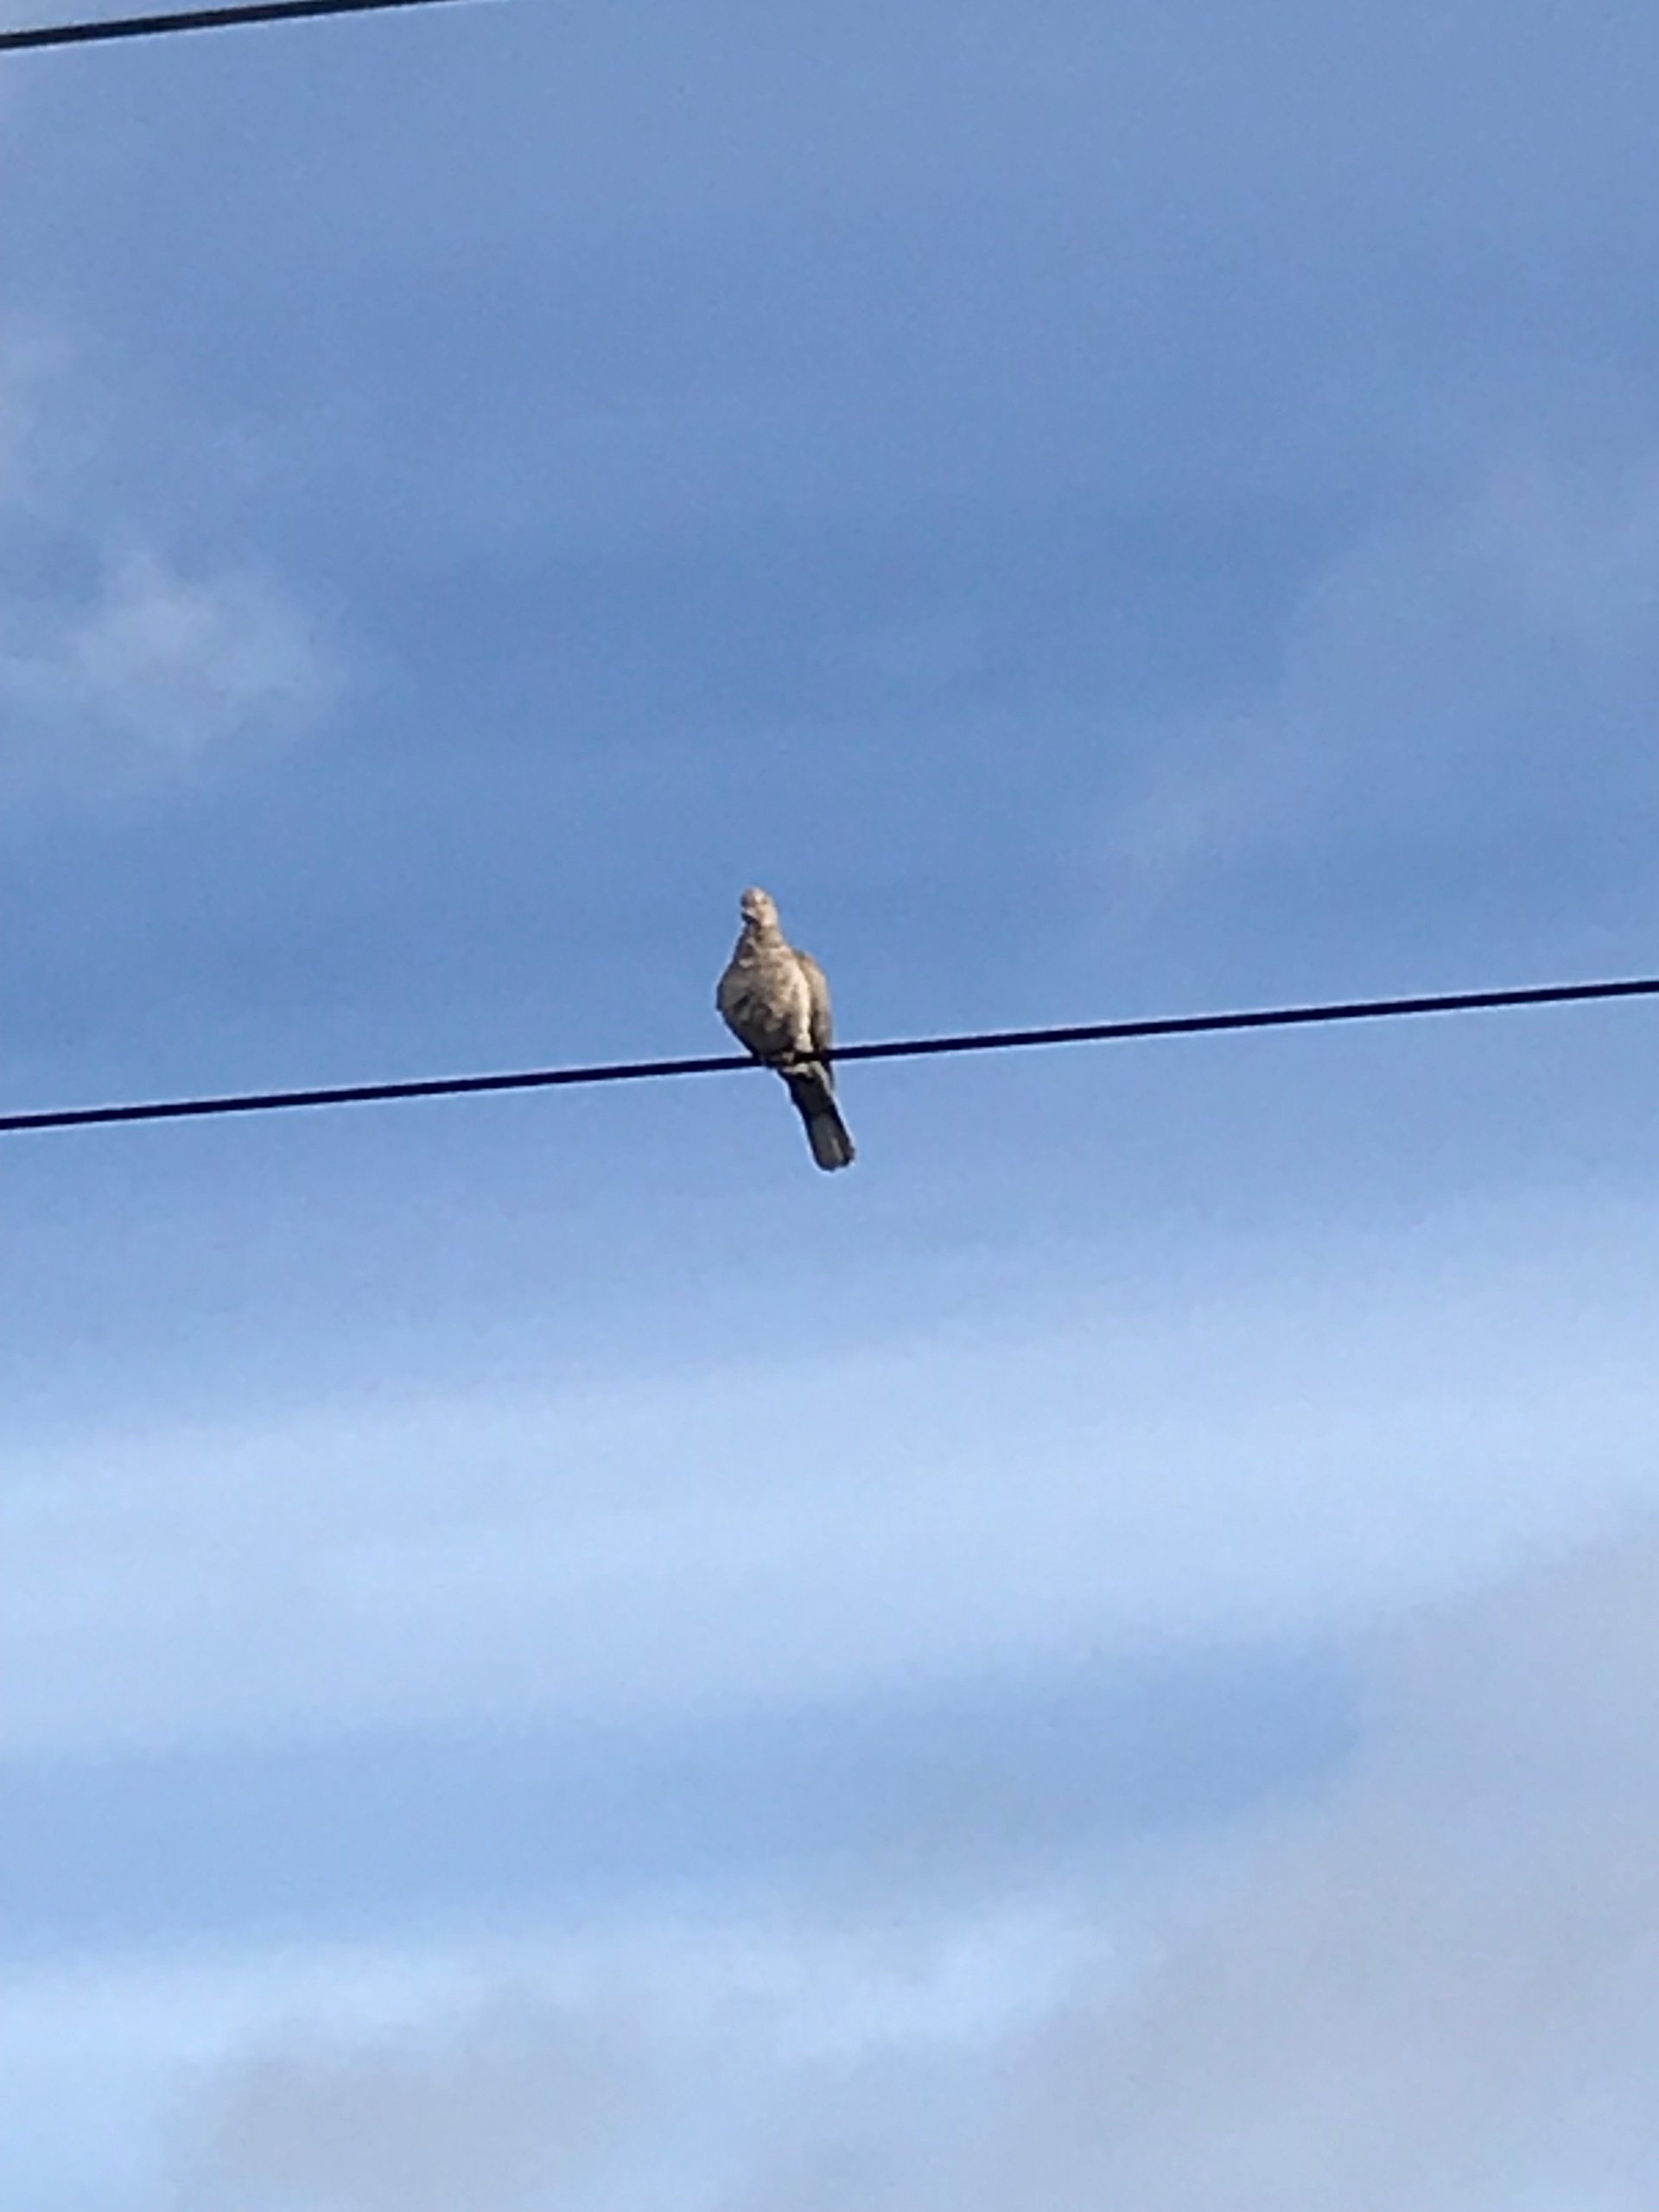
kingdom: Animalia
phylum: Chordata
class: Aves
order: Columbiformes
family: Columbidae
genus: Streptopelia
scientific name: Streptopelia decaocto
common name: Tyrkerdue
